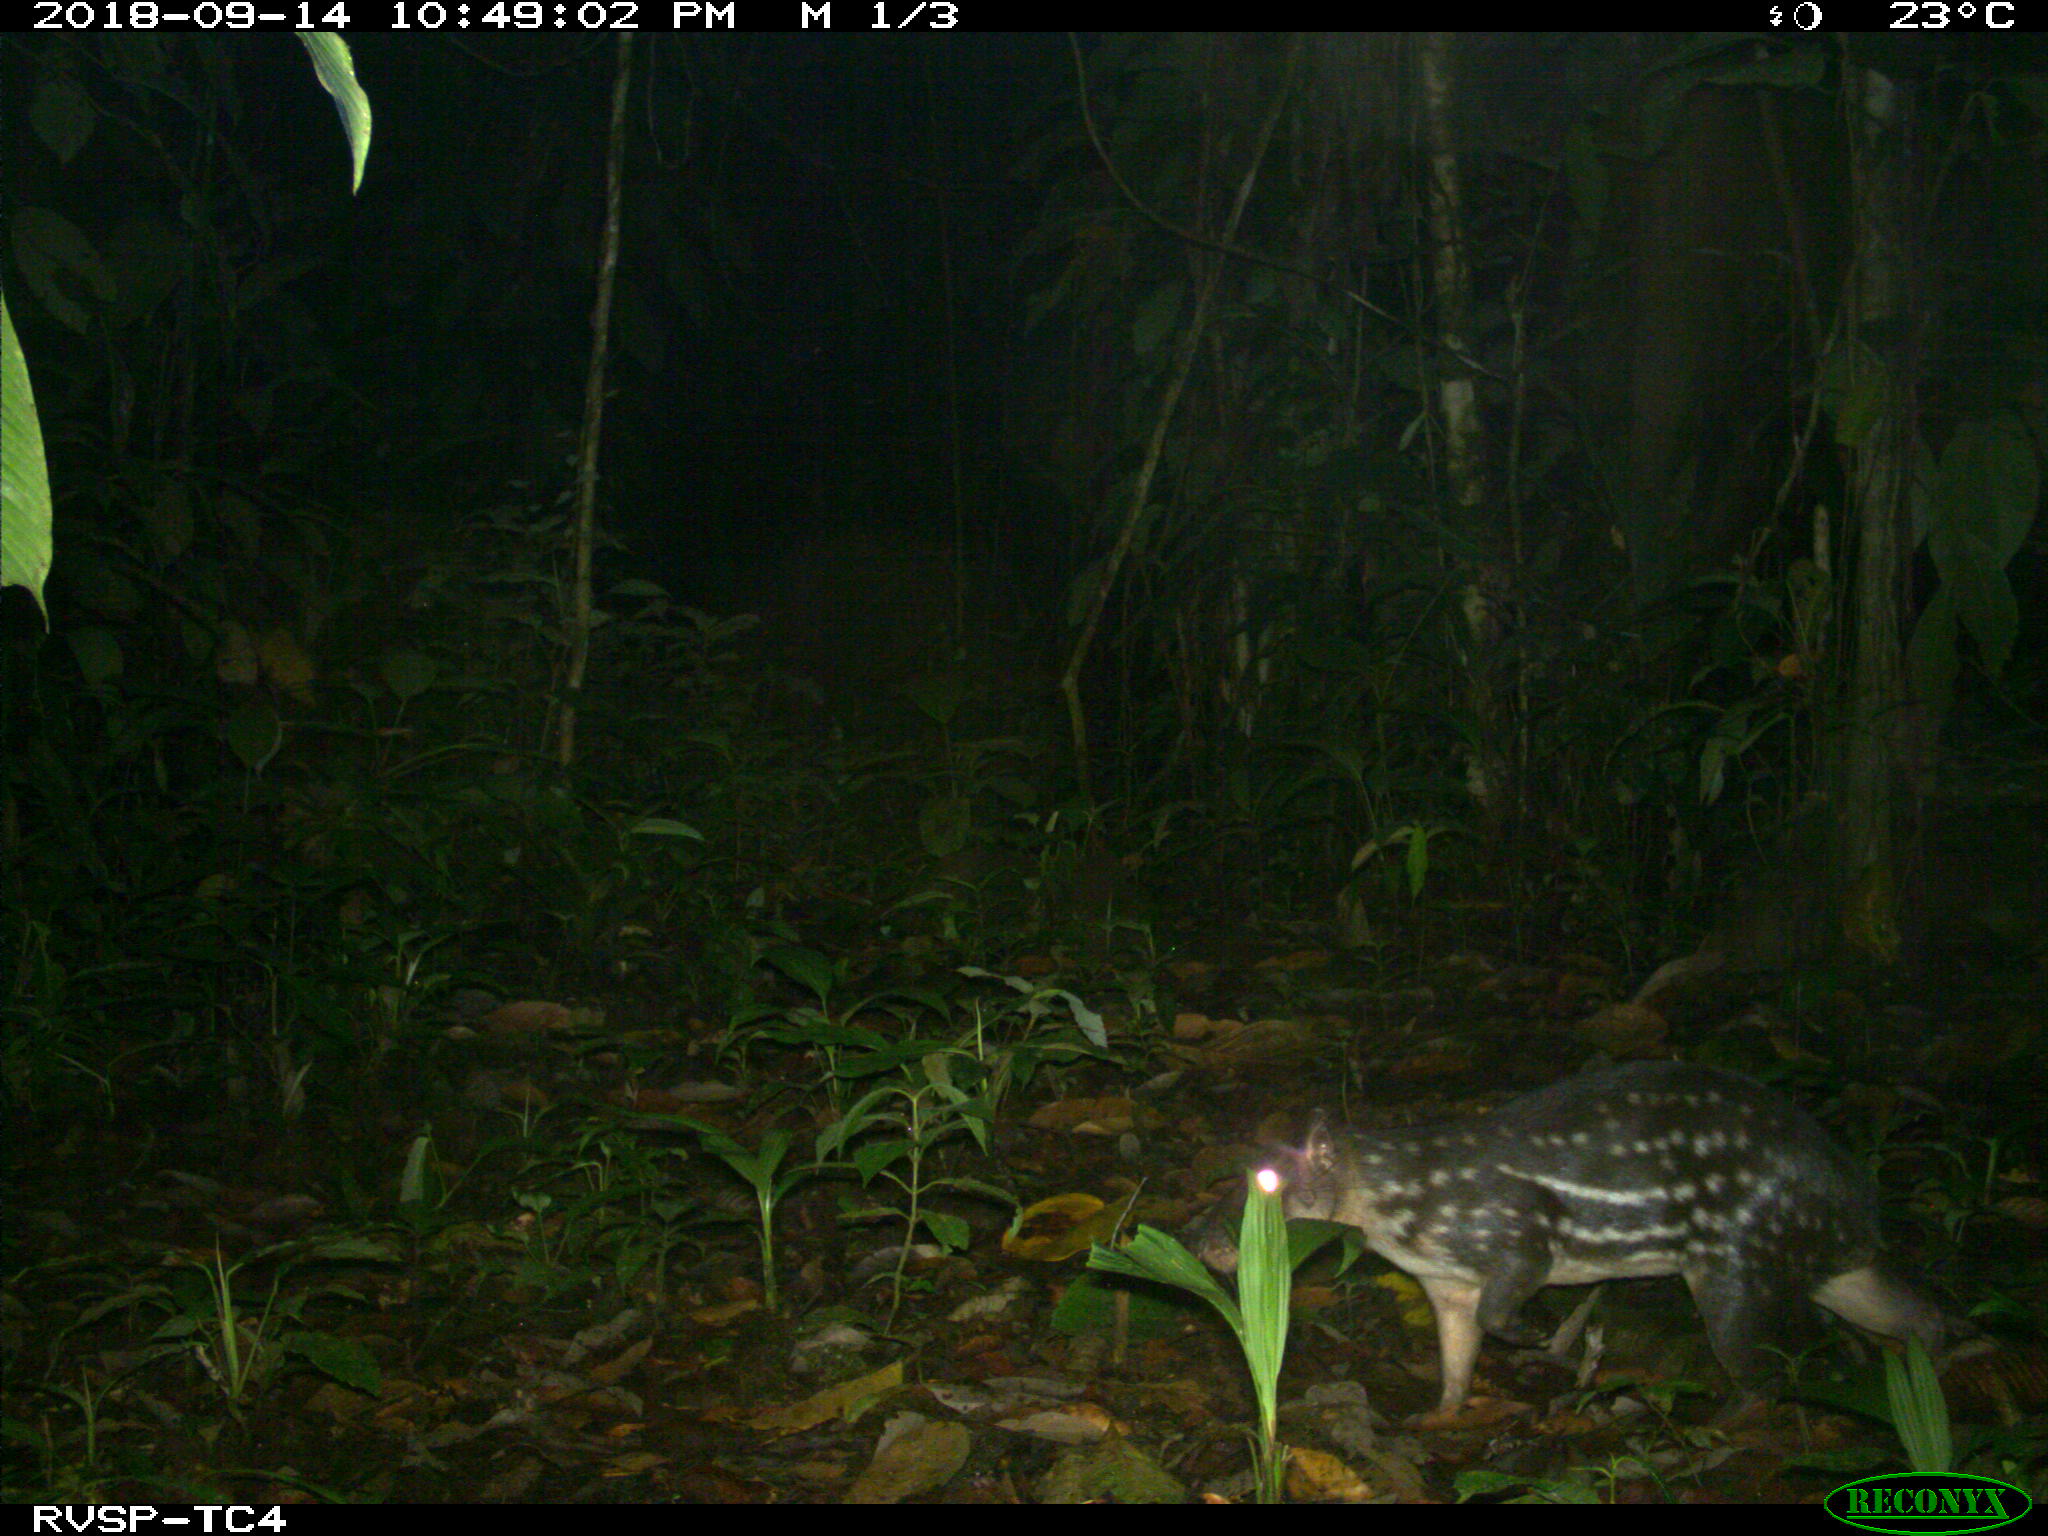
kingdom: Animalia
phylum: Chordata
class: Mammalia
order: Rodentia
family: Cuniculidae
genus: Cuniculus
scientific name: Cuniculus paca
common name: Lowland paca
